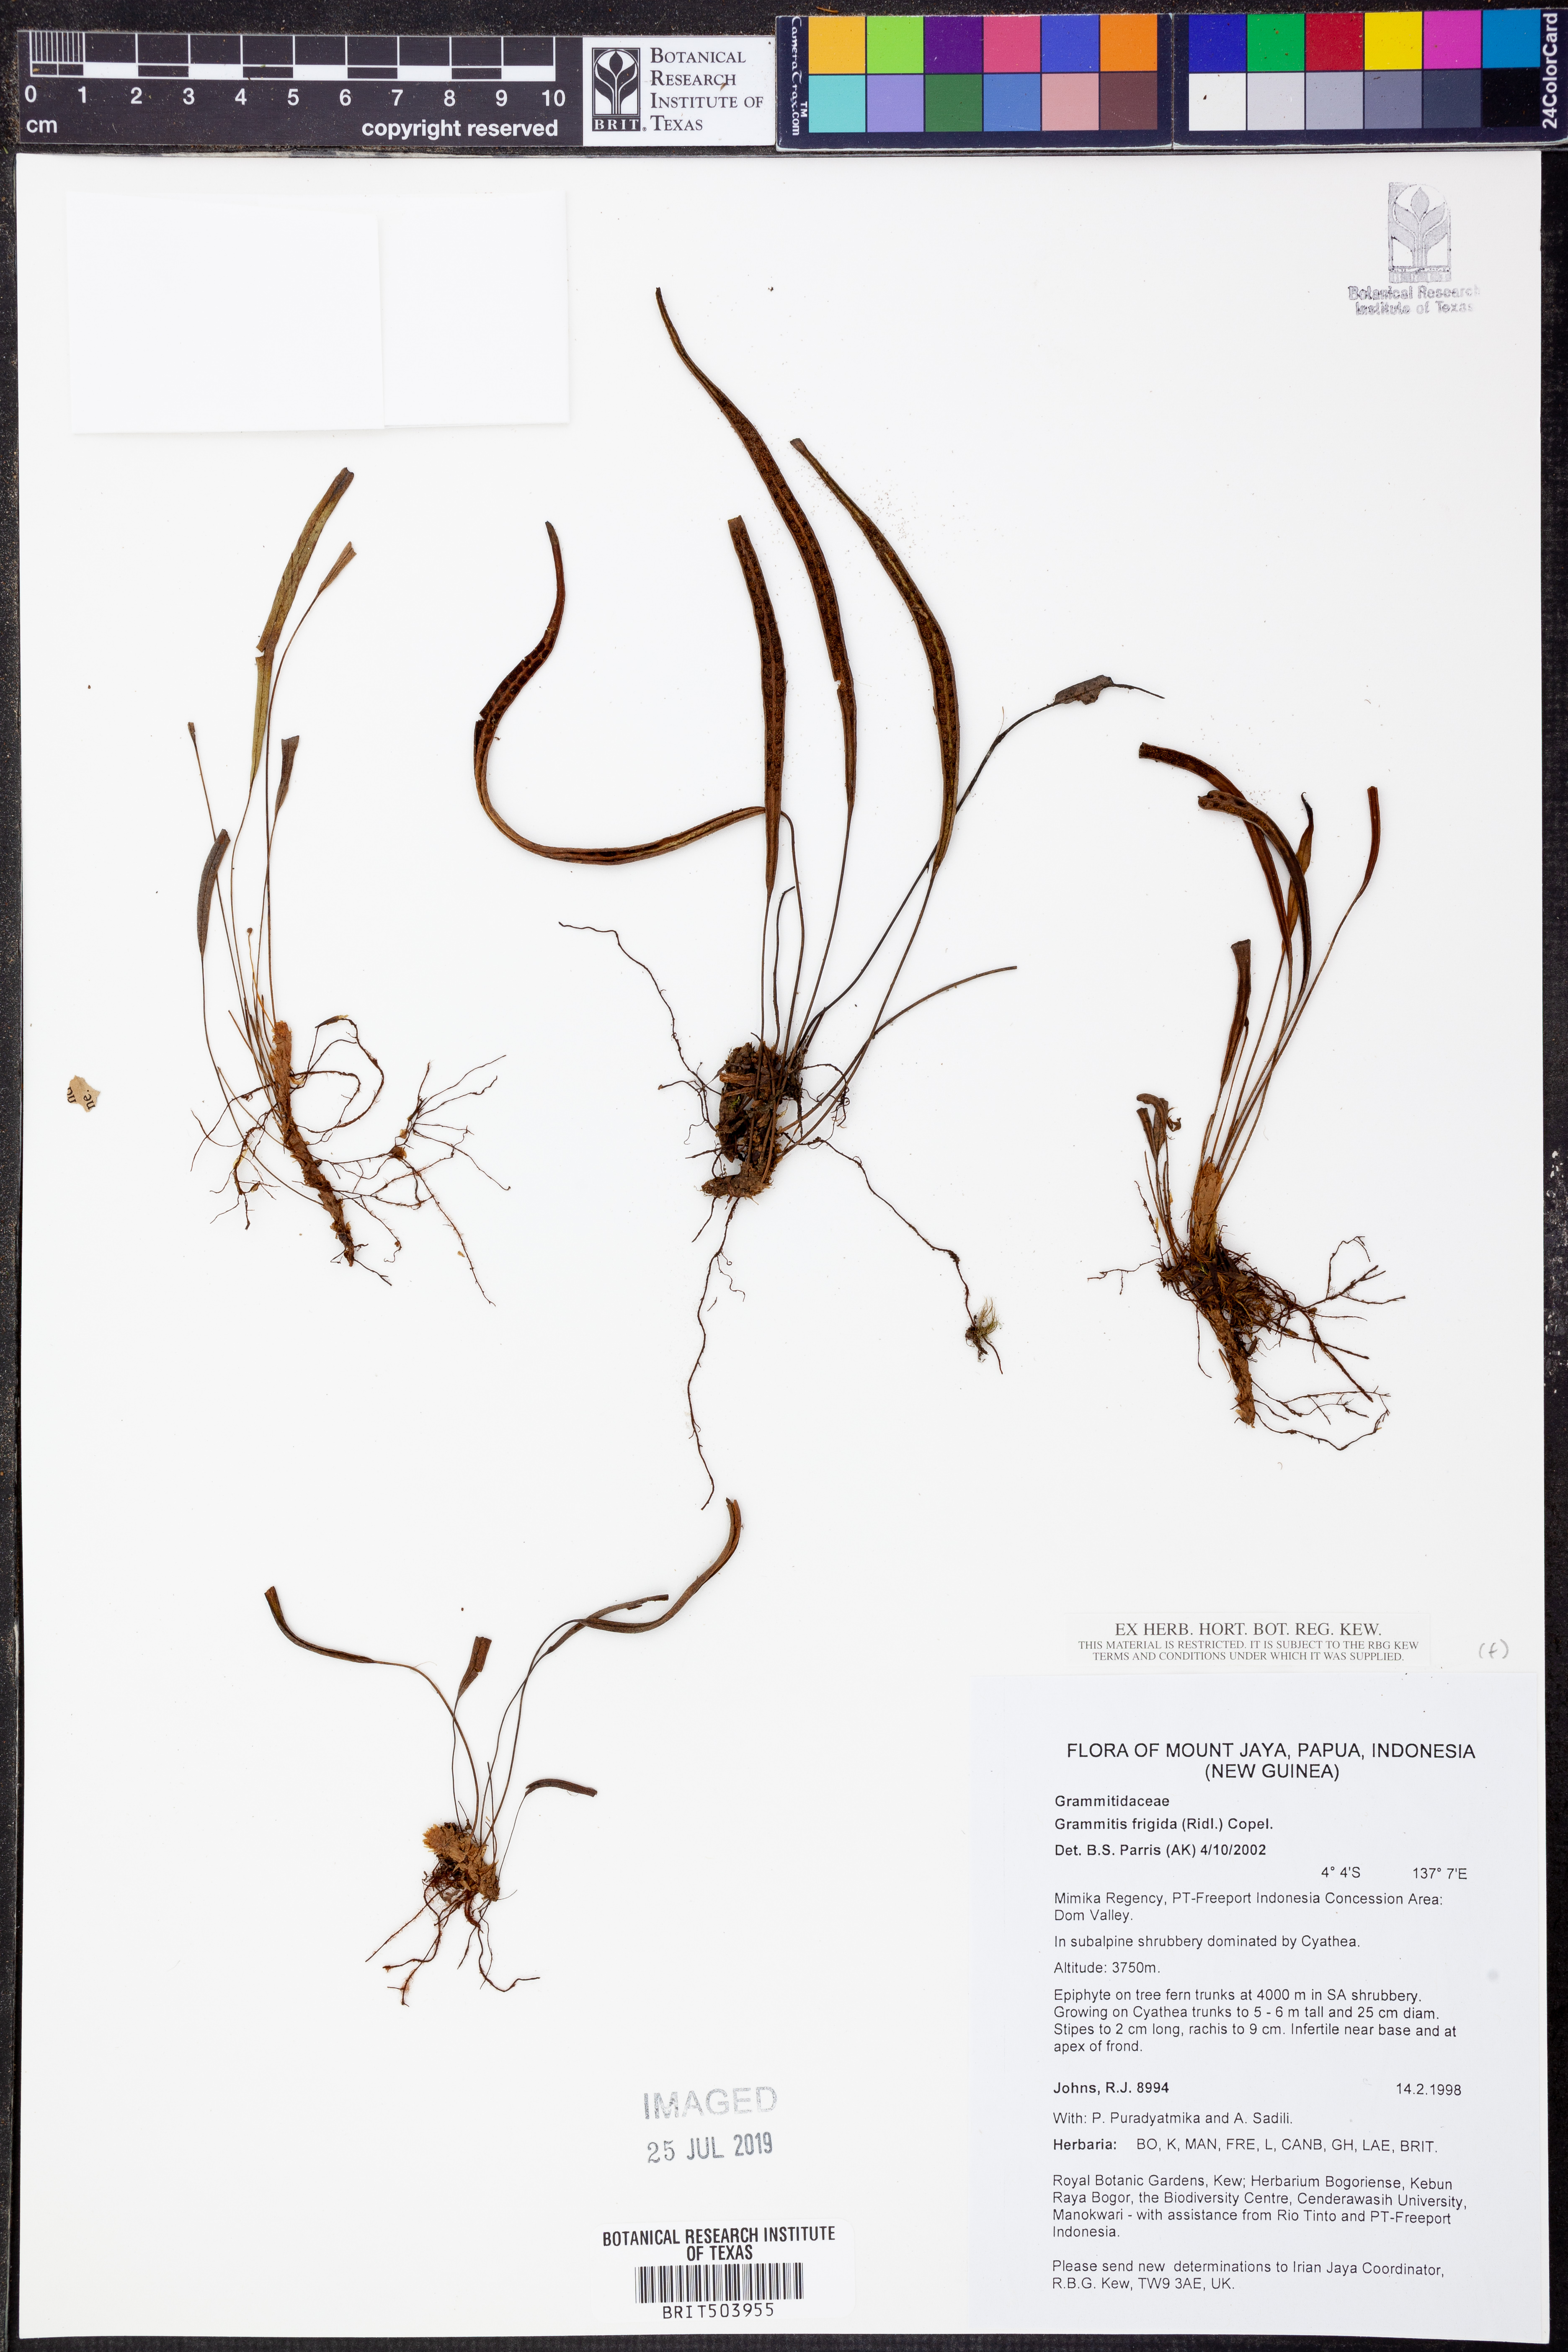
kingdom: Plantae
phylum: Tracheophyta
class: Polypodiopsida
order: Polypodiales
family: Polypodiaceae
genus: Oreogrammitis
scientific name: Oreogrammitis frigida
